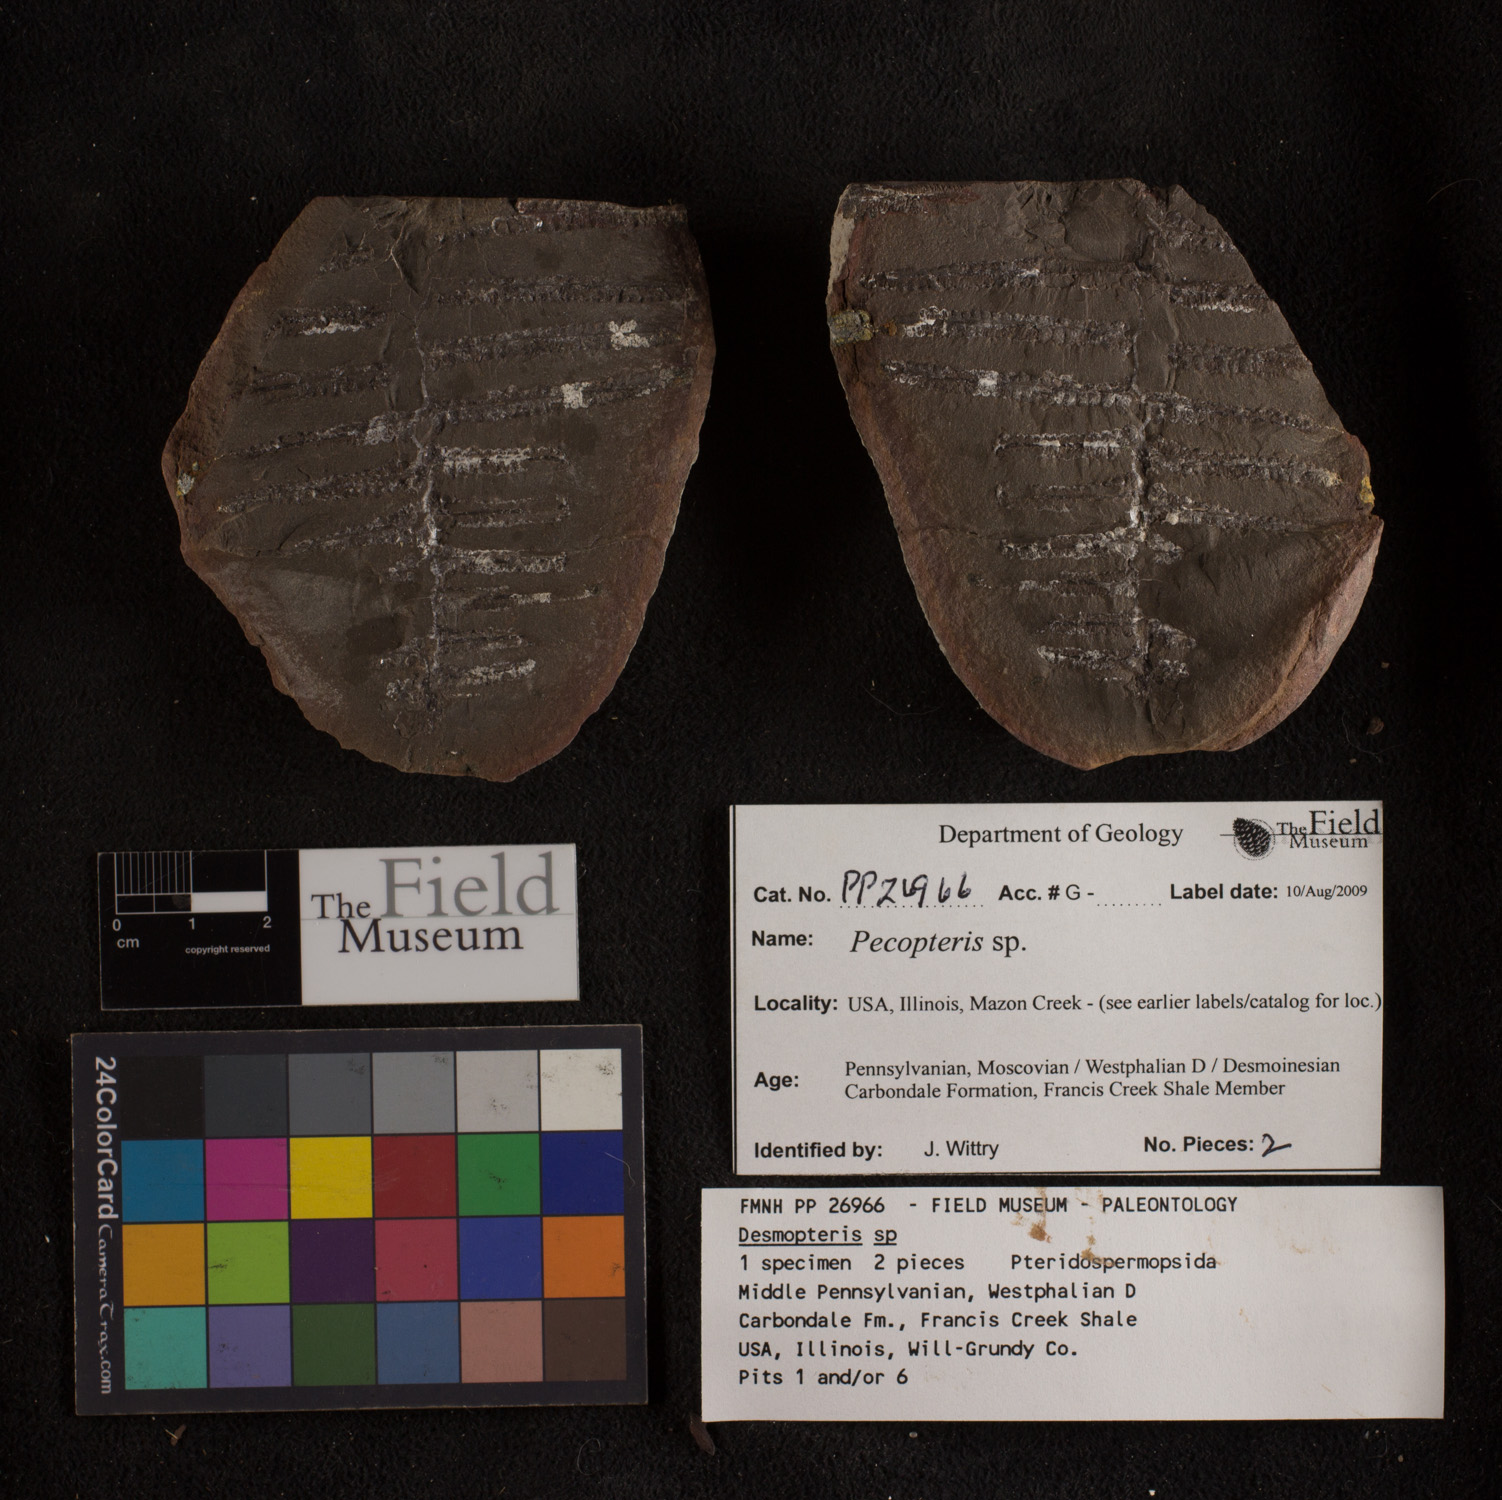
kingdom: Plantae
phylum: Tracheophyta
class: Polypodiopsida
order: Marattiales
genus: Cyathocarpus
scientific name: Cyathocarpus
